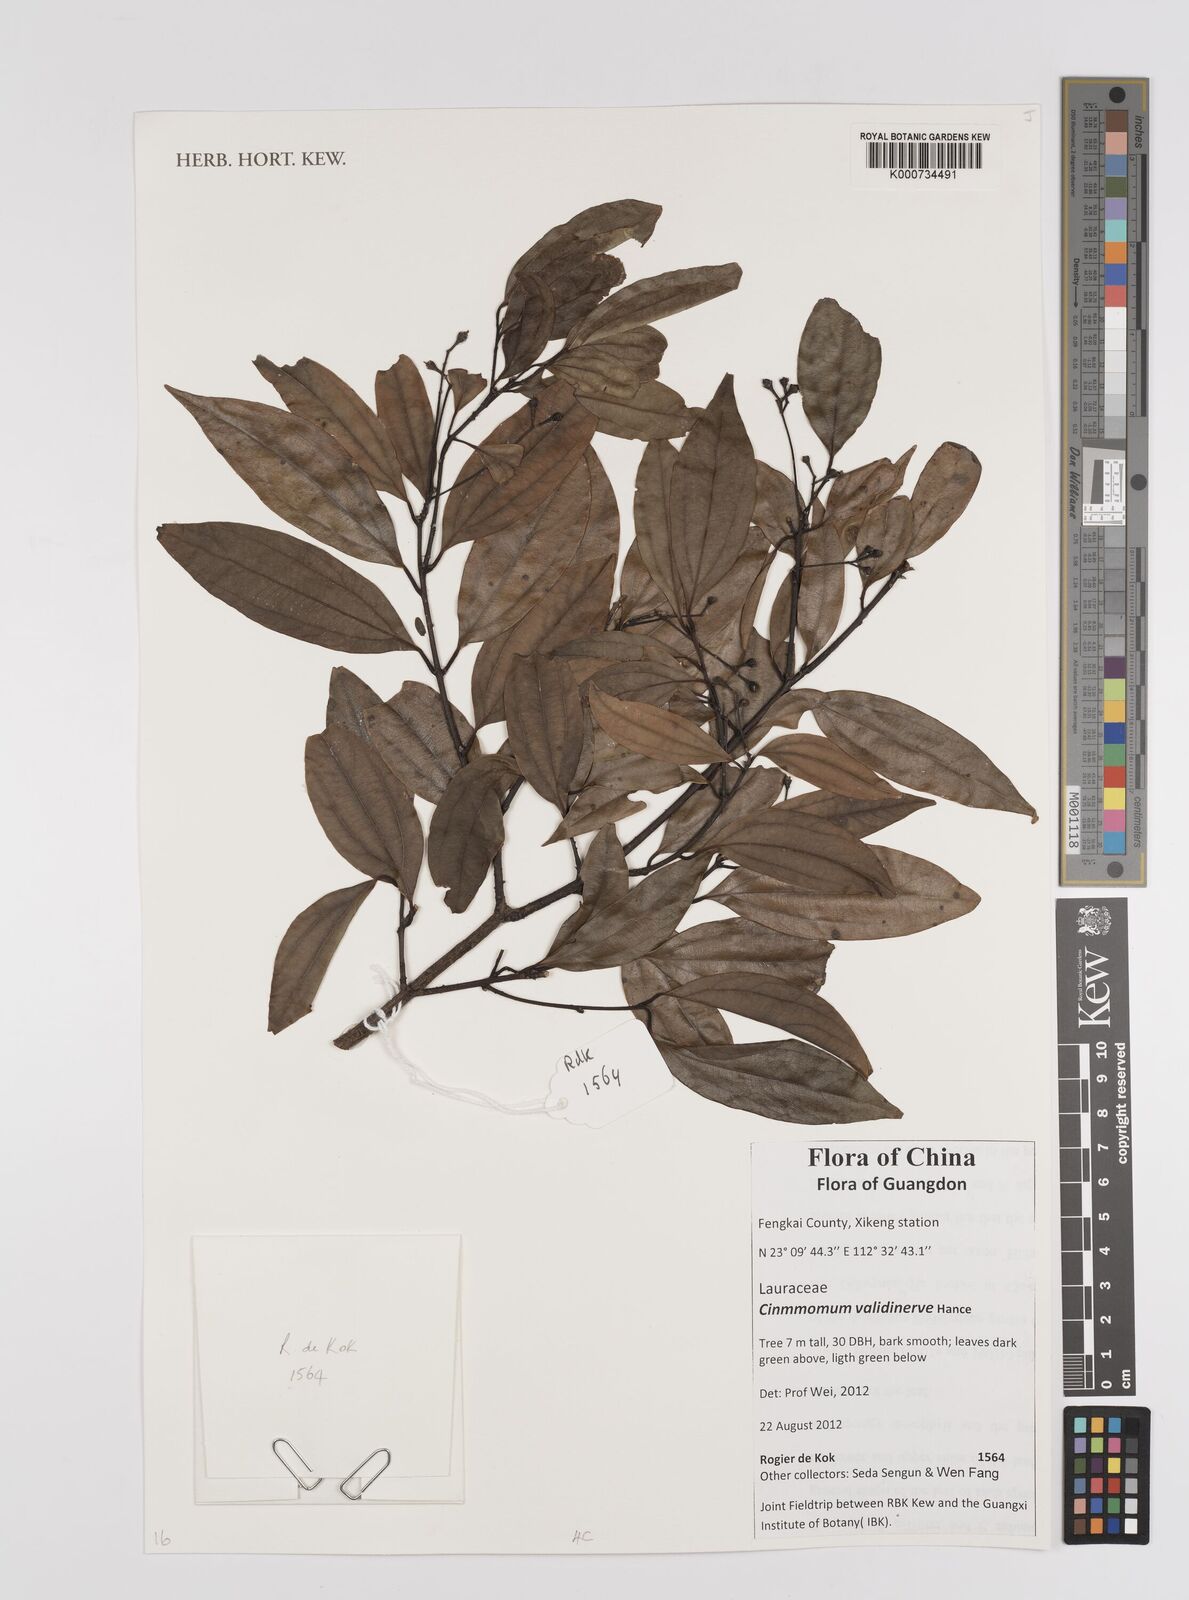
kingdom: Plantae
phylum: Tracheophyta
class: Magnoliopsida
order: Laurales
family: Lauraceae
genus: Cinnamomum
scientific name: Cinnamomum validinerve
